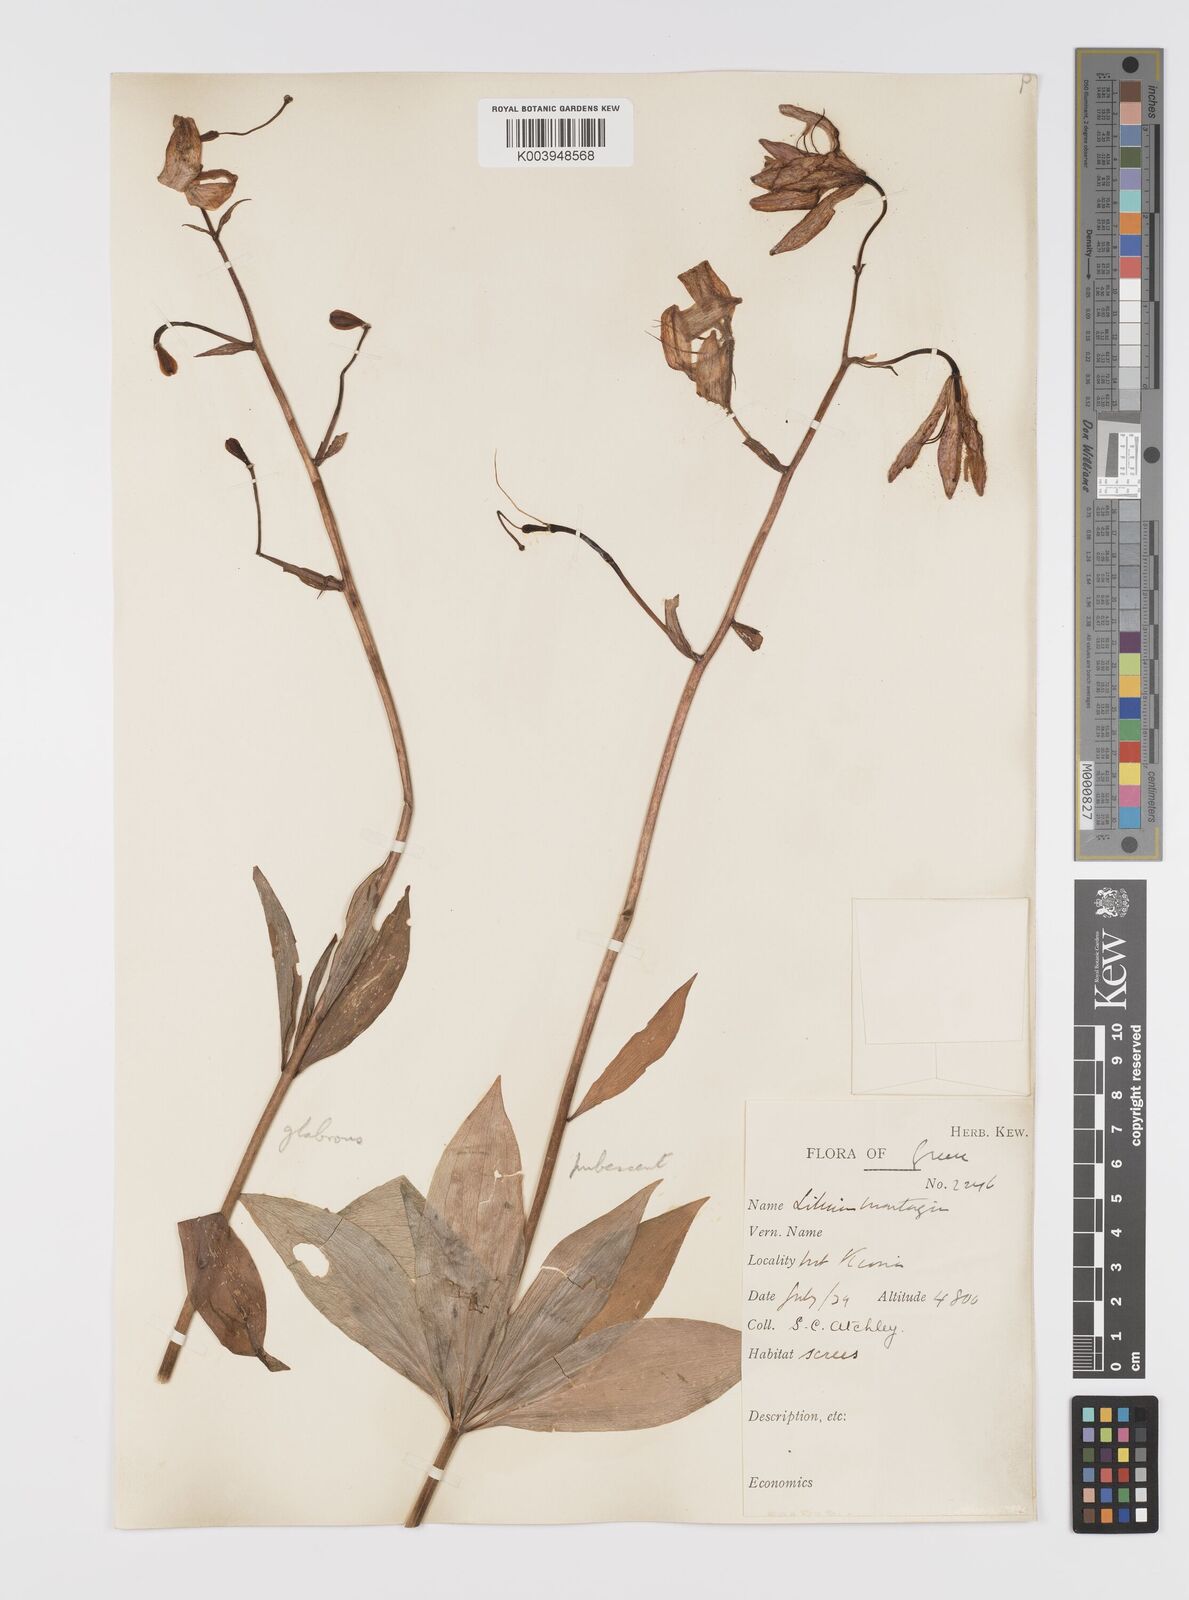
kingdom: Plantae
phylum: Tracheophyta
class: Liliopsida
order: Liliales
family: Liliaceae
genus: Lilium
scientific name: Lilium martagon
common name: Martagon lily
